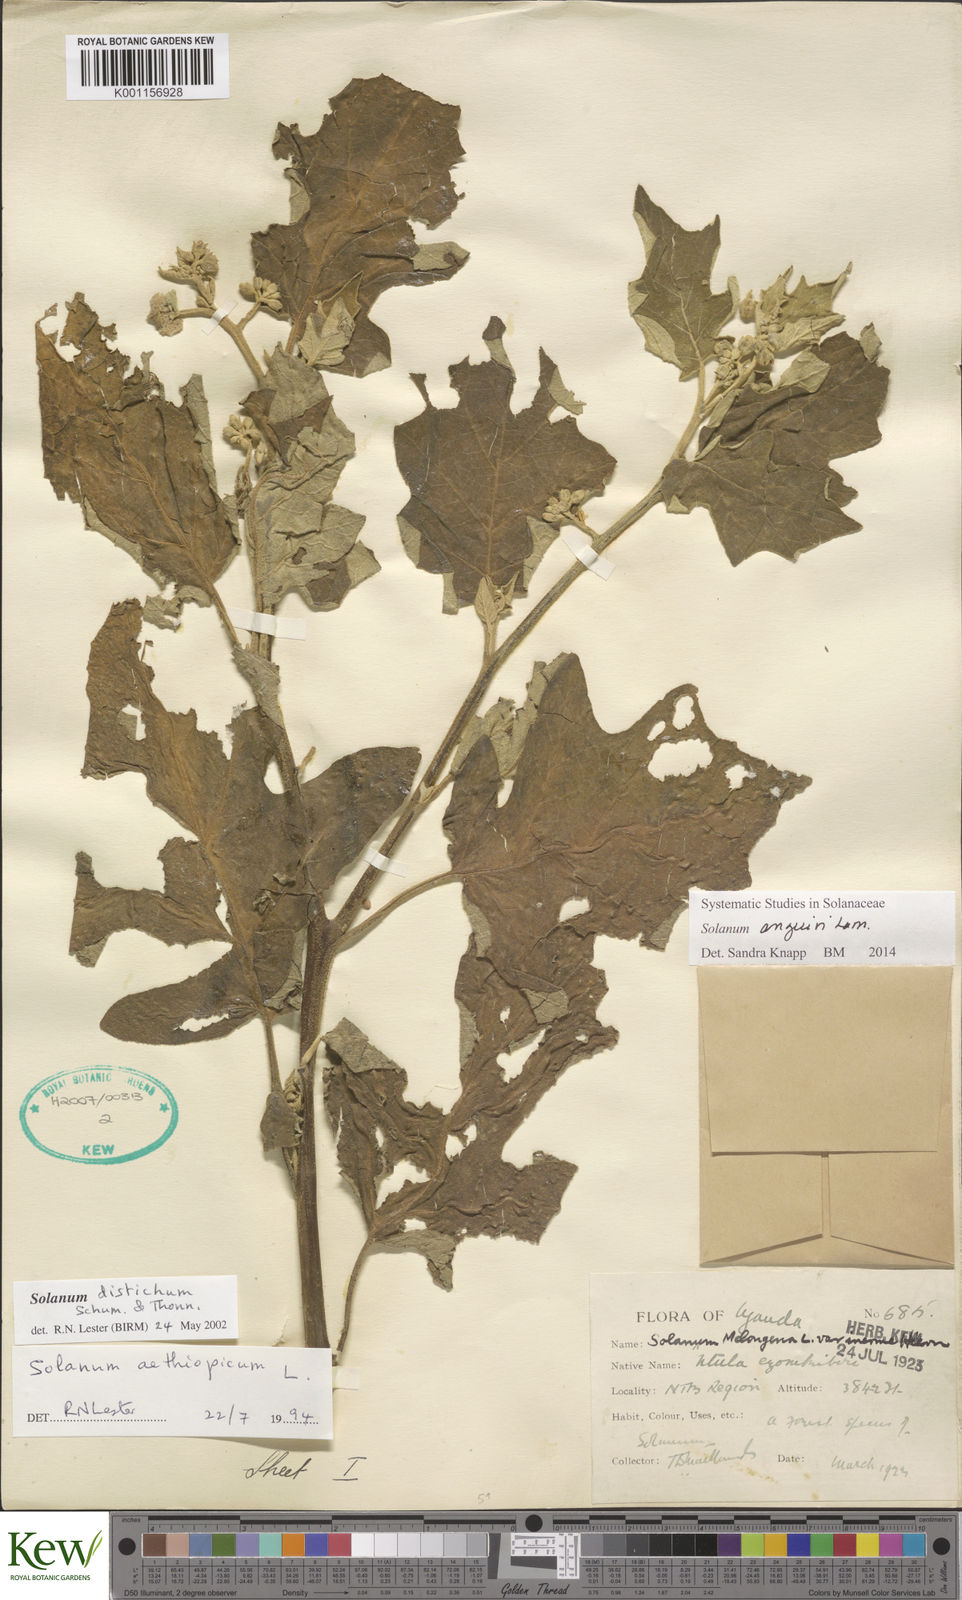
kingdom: Plantae
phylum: Tracheophyta
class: Magnoliopsida
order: Solanales
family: Solanaceae
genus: Solanum
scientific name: Solanum anguivi
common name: Forest bitterberry
